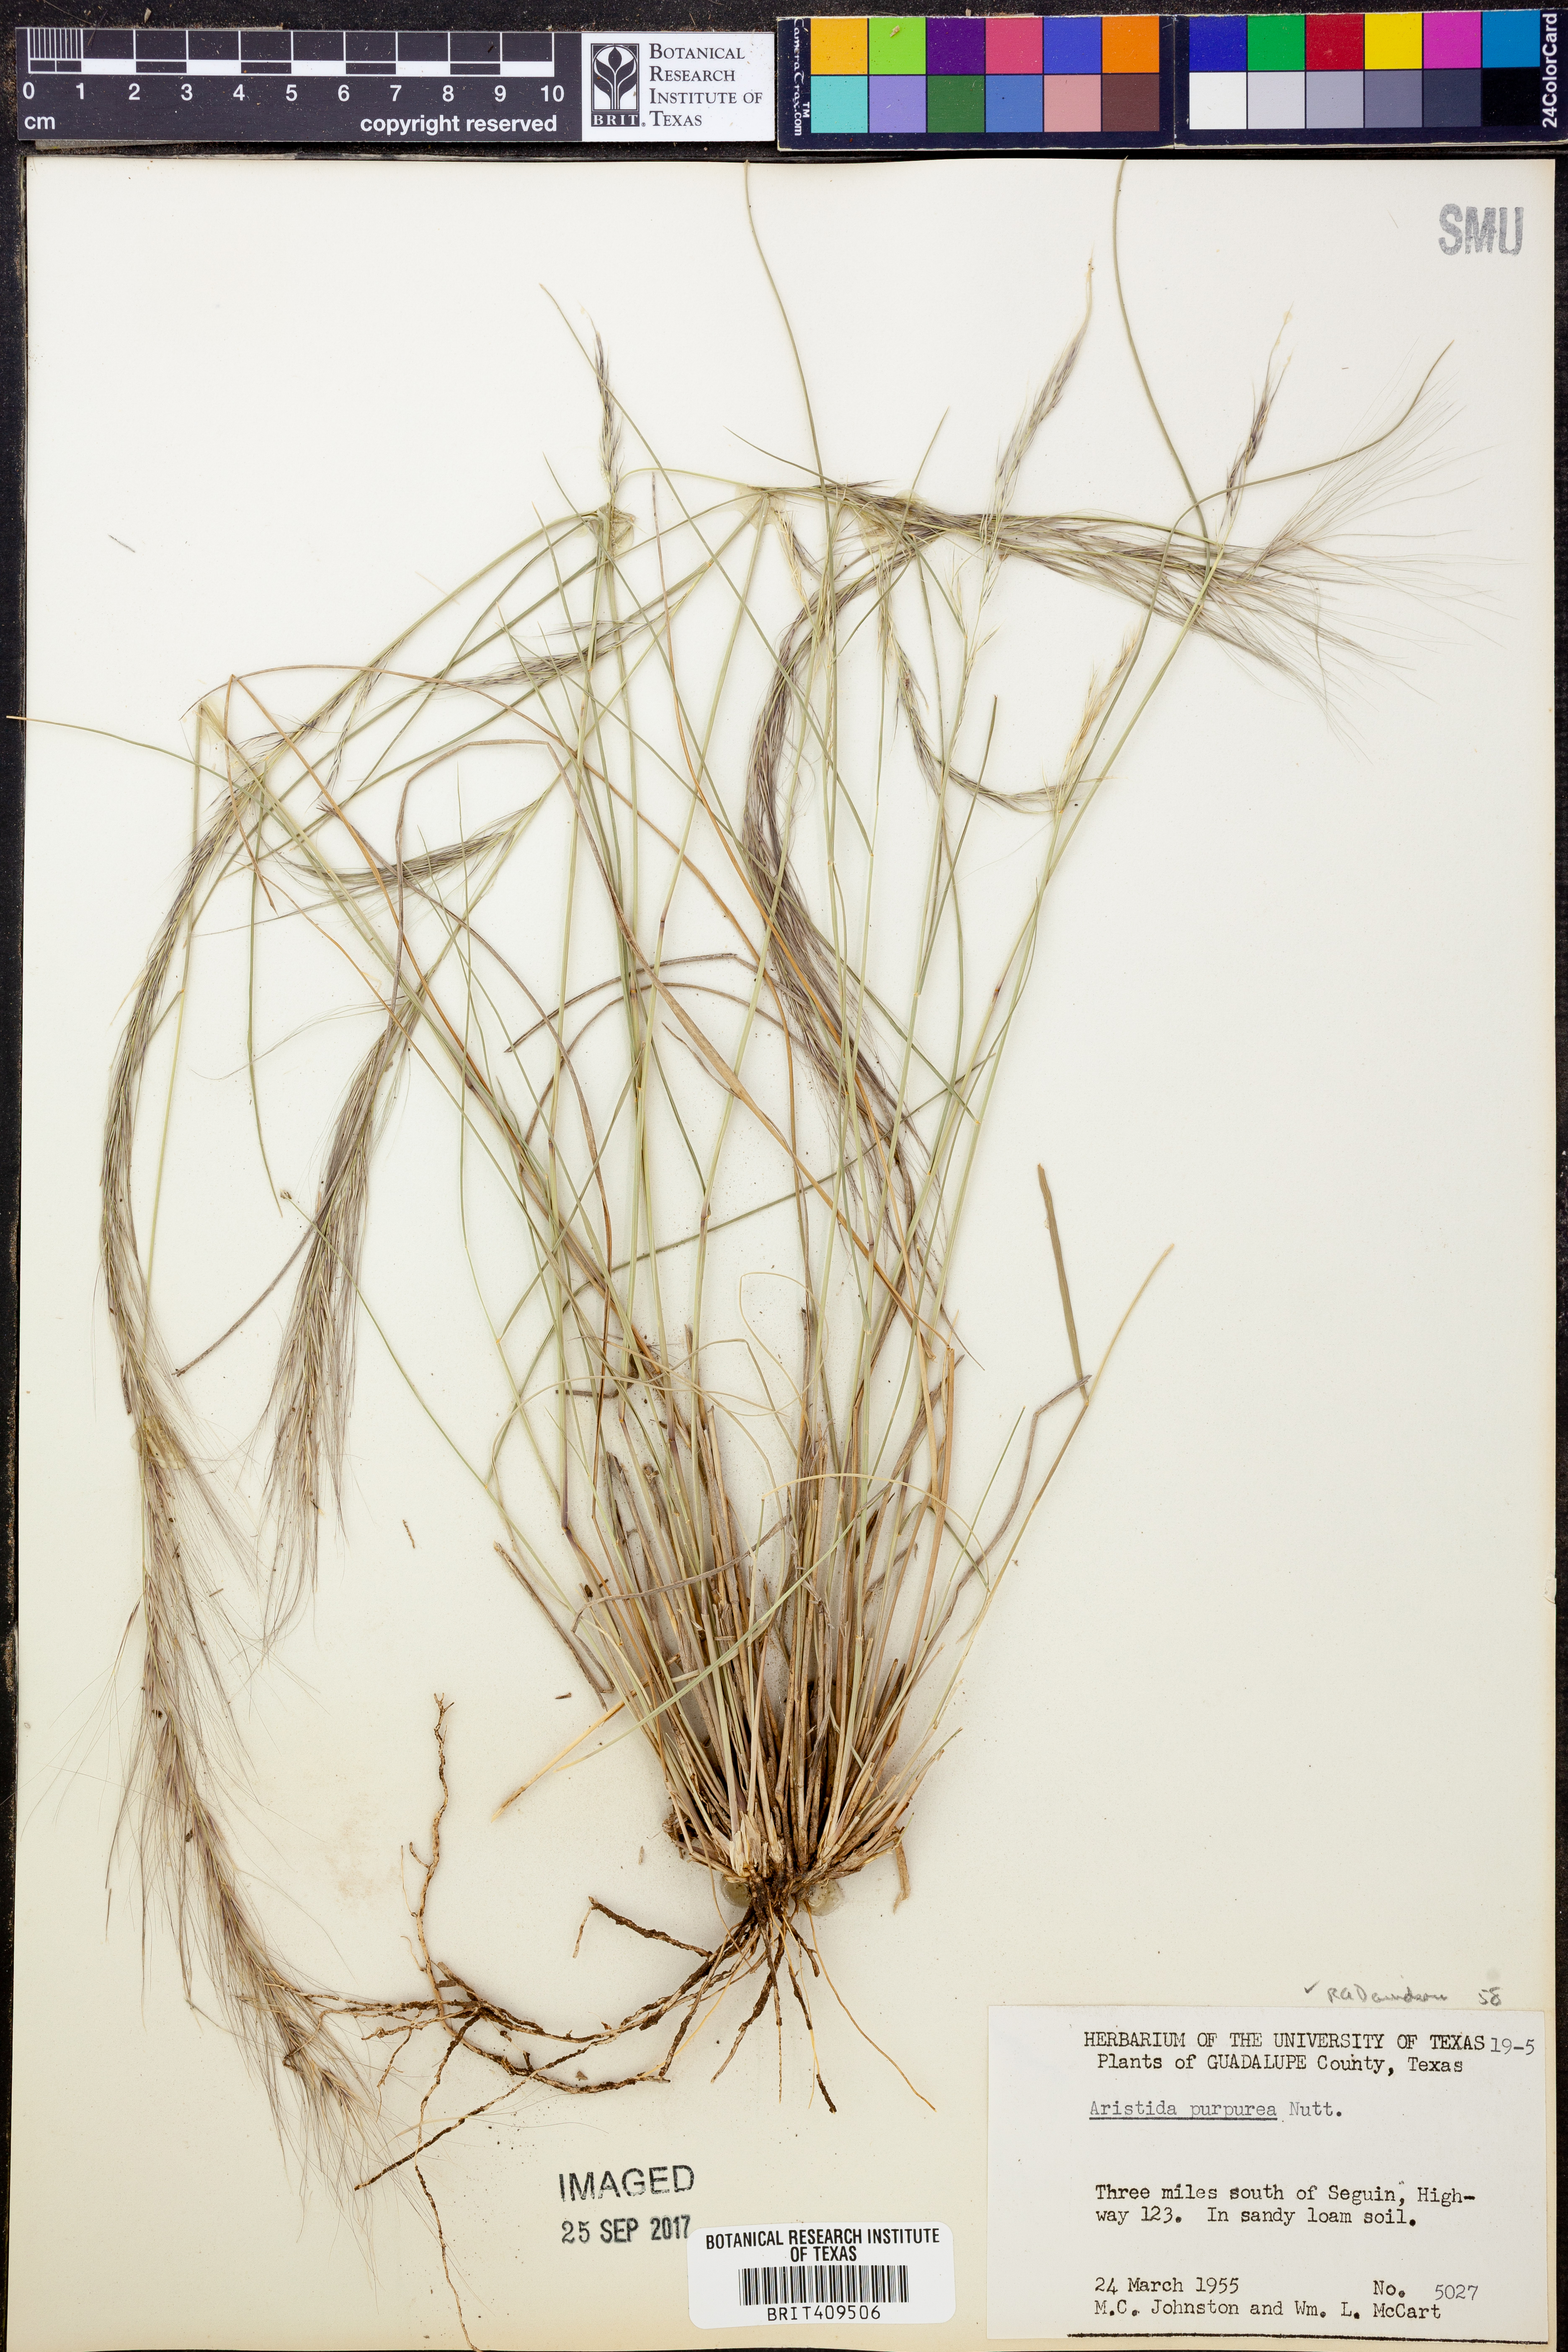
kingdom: Plantae
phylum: Tracheophyta
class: Liliopsida
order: Poales
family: Poaceae
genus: Aristida
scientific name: Aristida purpurea
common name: Purple threeawn
